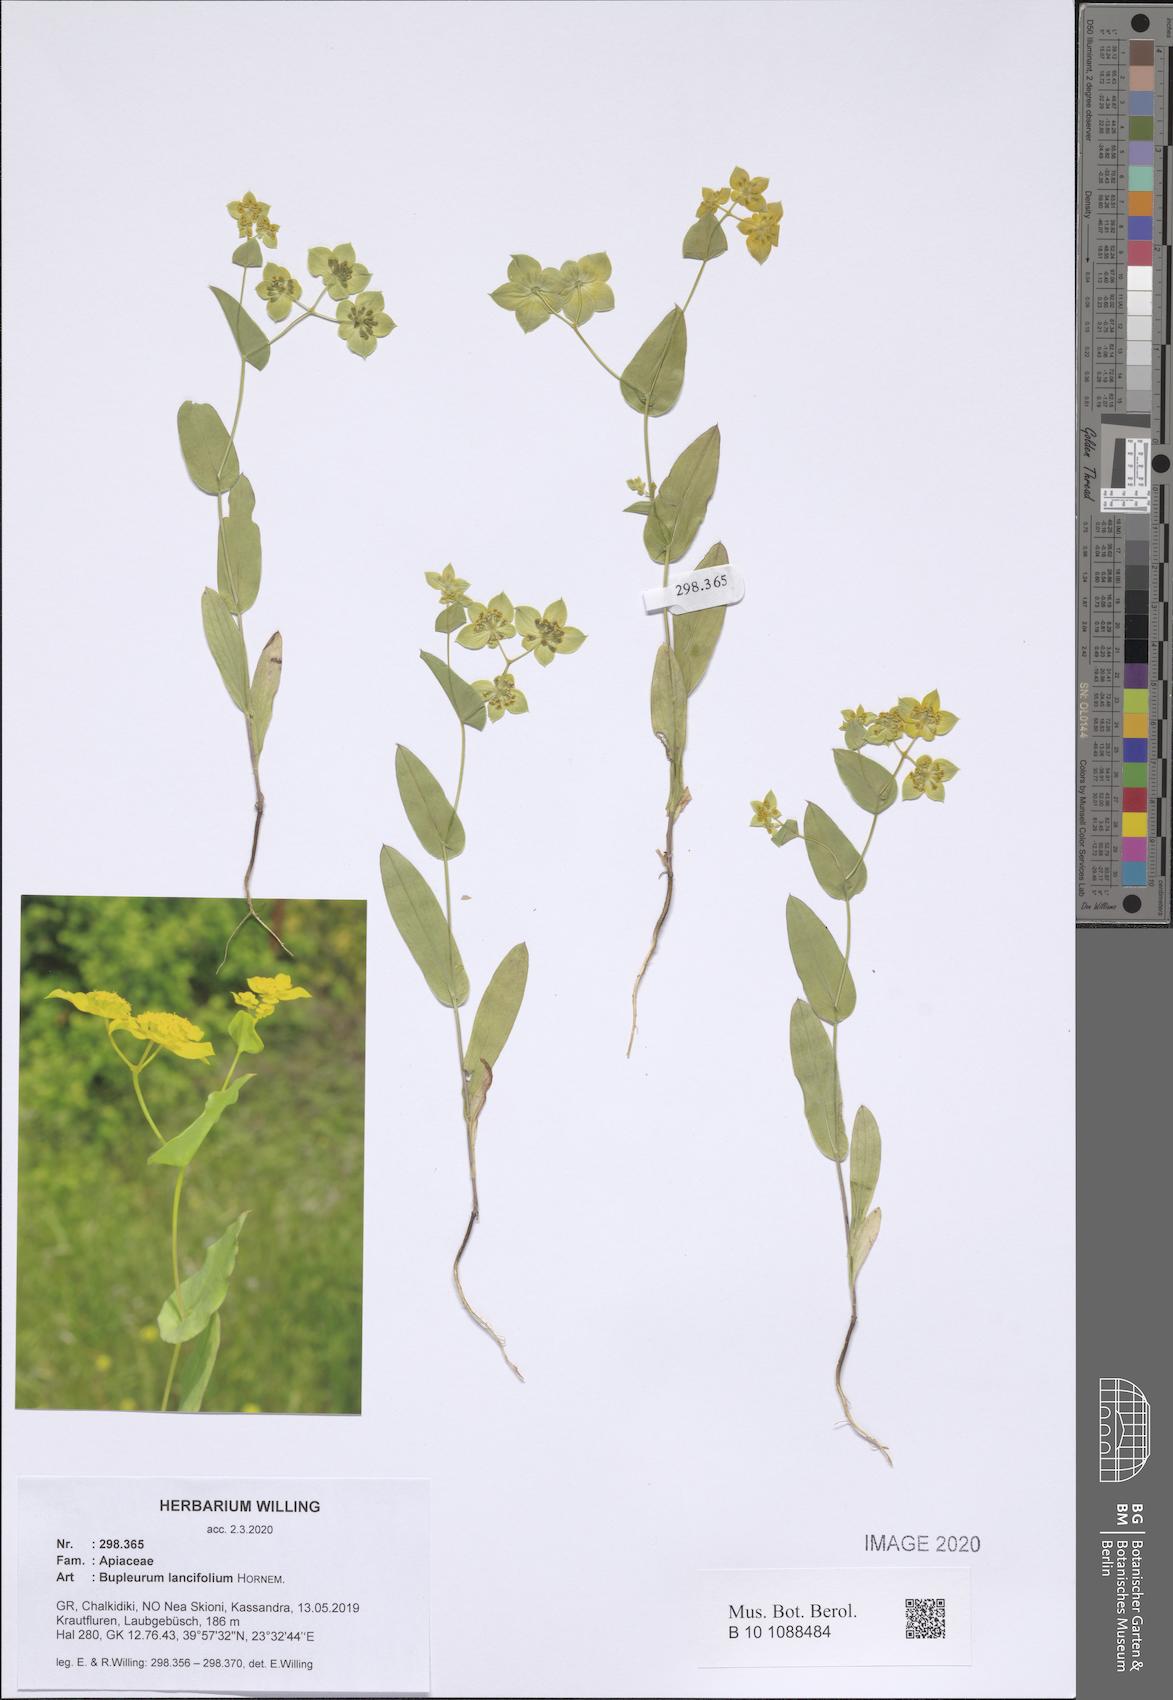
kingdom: Plantae
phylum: Tracheophyta
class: Magnoliopsida
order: Apiales
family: Apiaceae
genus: Bupleurum
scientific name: Bupleurum lancifolium
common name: False thorow-wax
